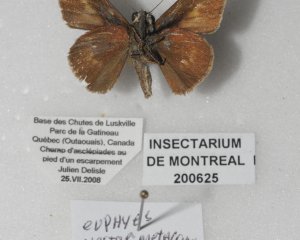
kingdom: Animalia
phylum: Arthropoda
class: Insecta
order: Lepidoptera
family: Hesperiidae
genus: Euphyes
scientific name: Euphyes vestris
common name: Dun Skipper
